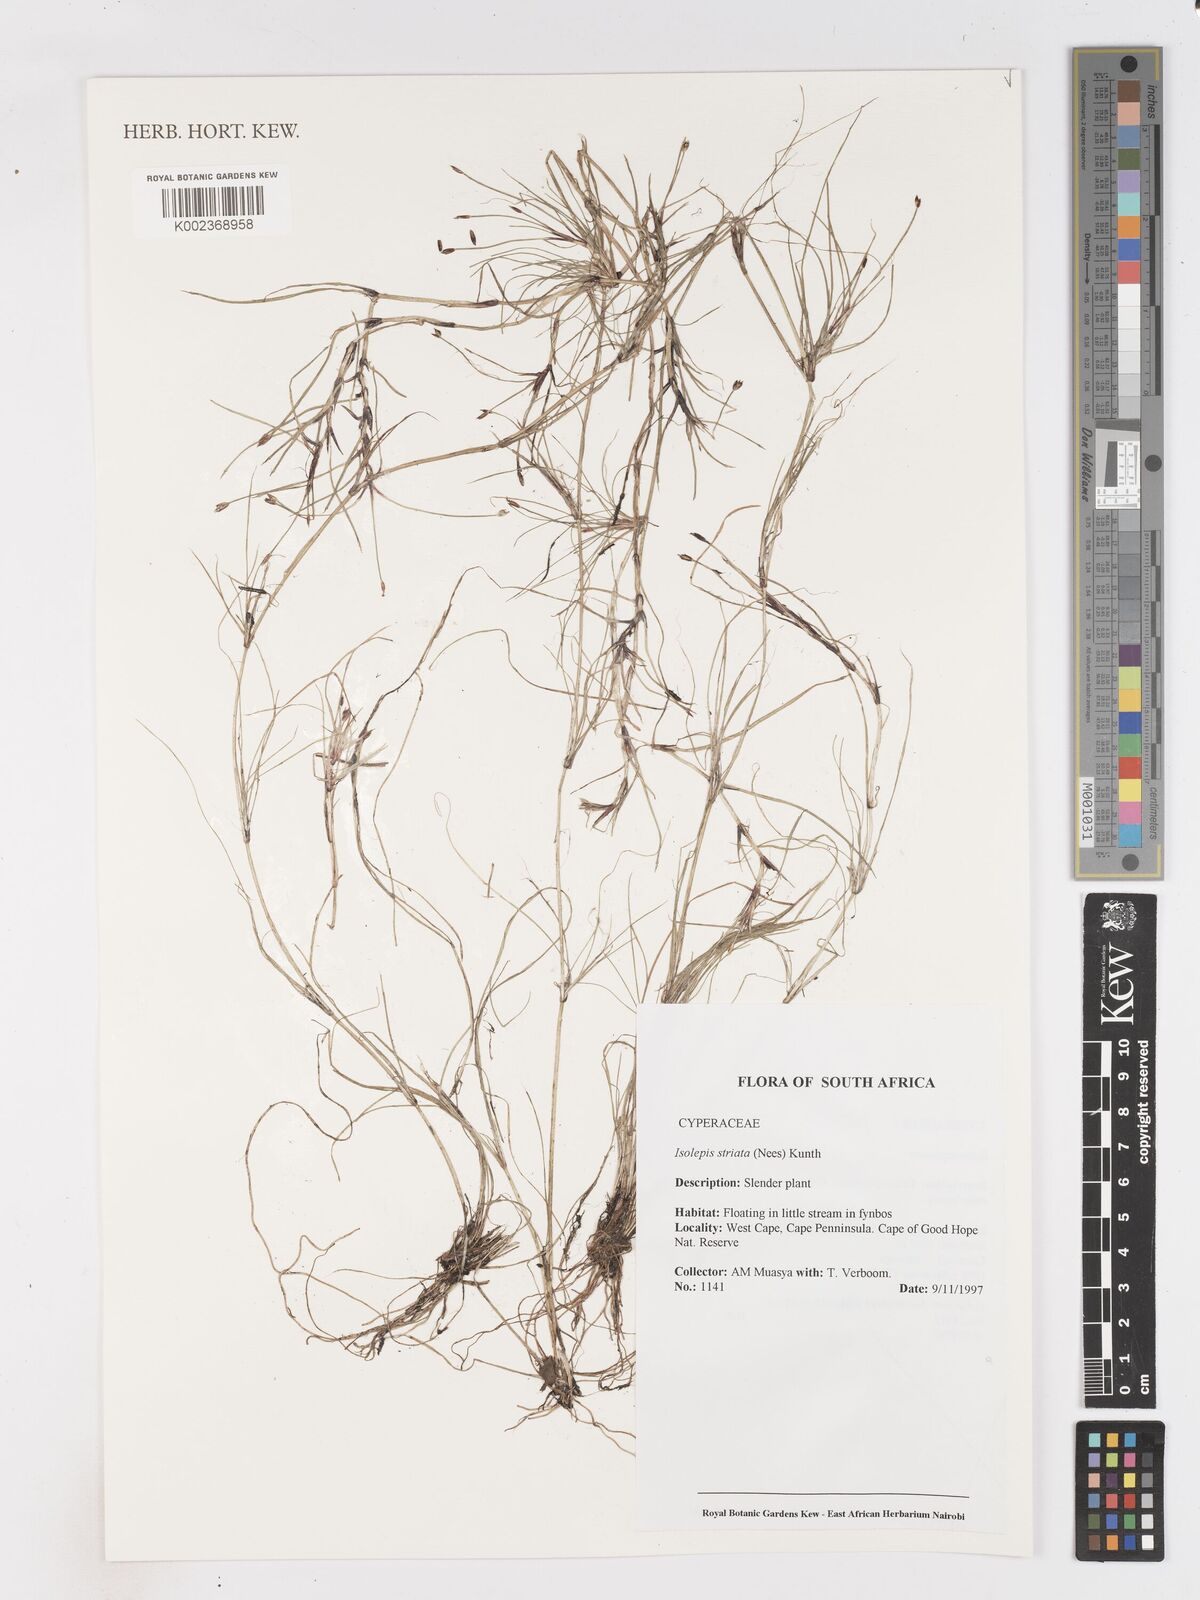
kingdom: Plantae
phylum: Tracheophyta
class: Liliopsida
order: Poales
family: Cyperaceae
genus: Isolepis
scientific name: Isolepis striata
